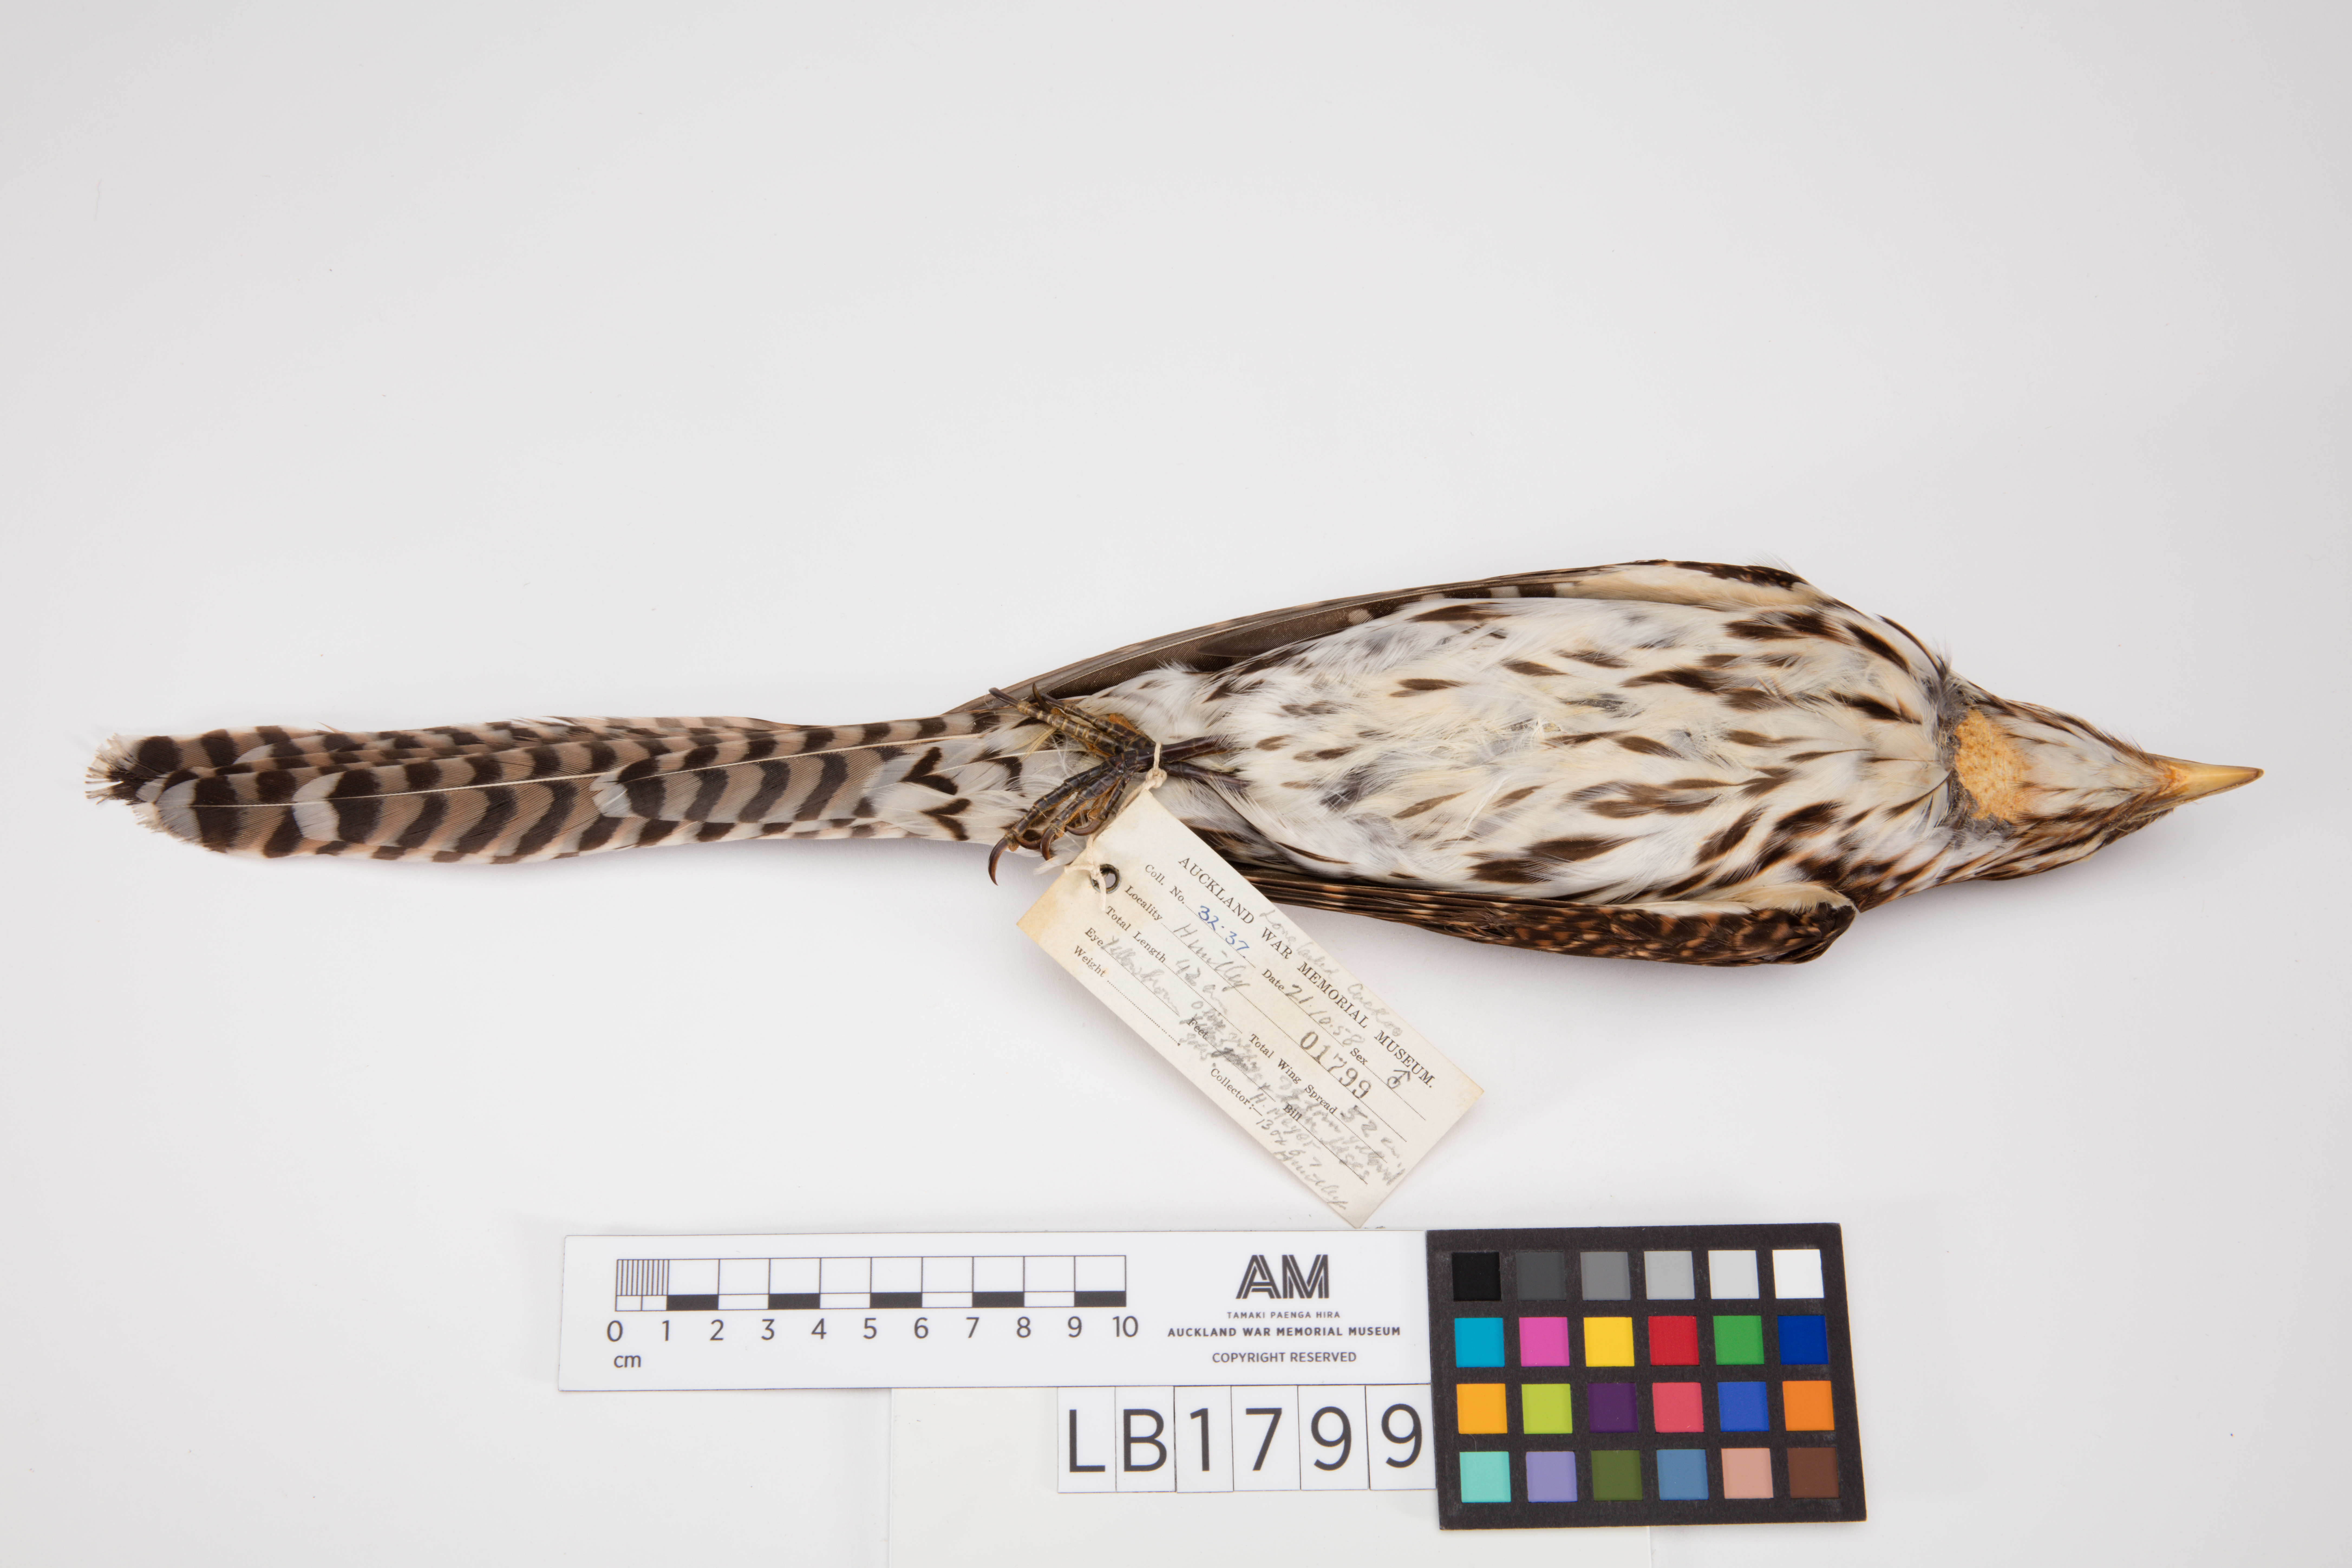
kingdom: Animalia
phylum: Chordata
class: Aves
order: Cuculiformes
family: Cuculidae
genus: Urodynamis
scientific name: Urodynamis taitensis
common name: Long-tailed koel
